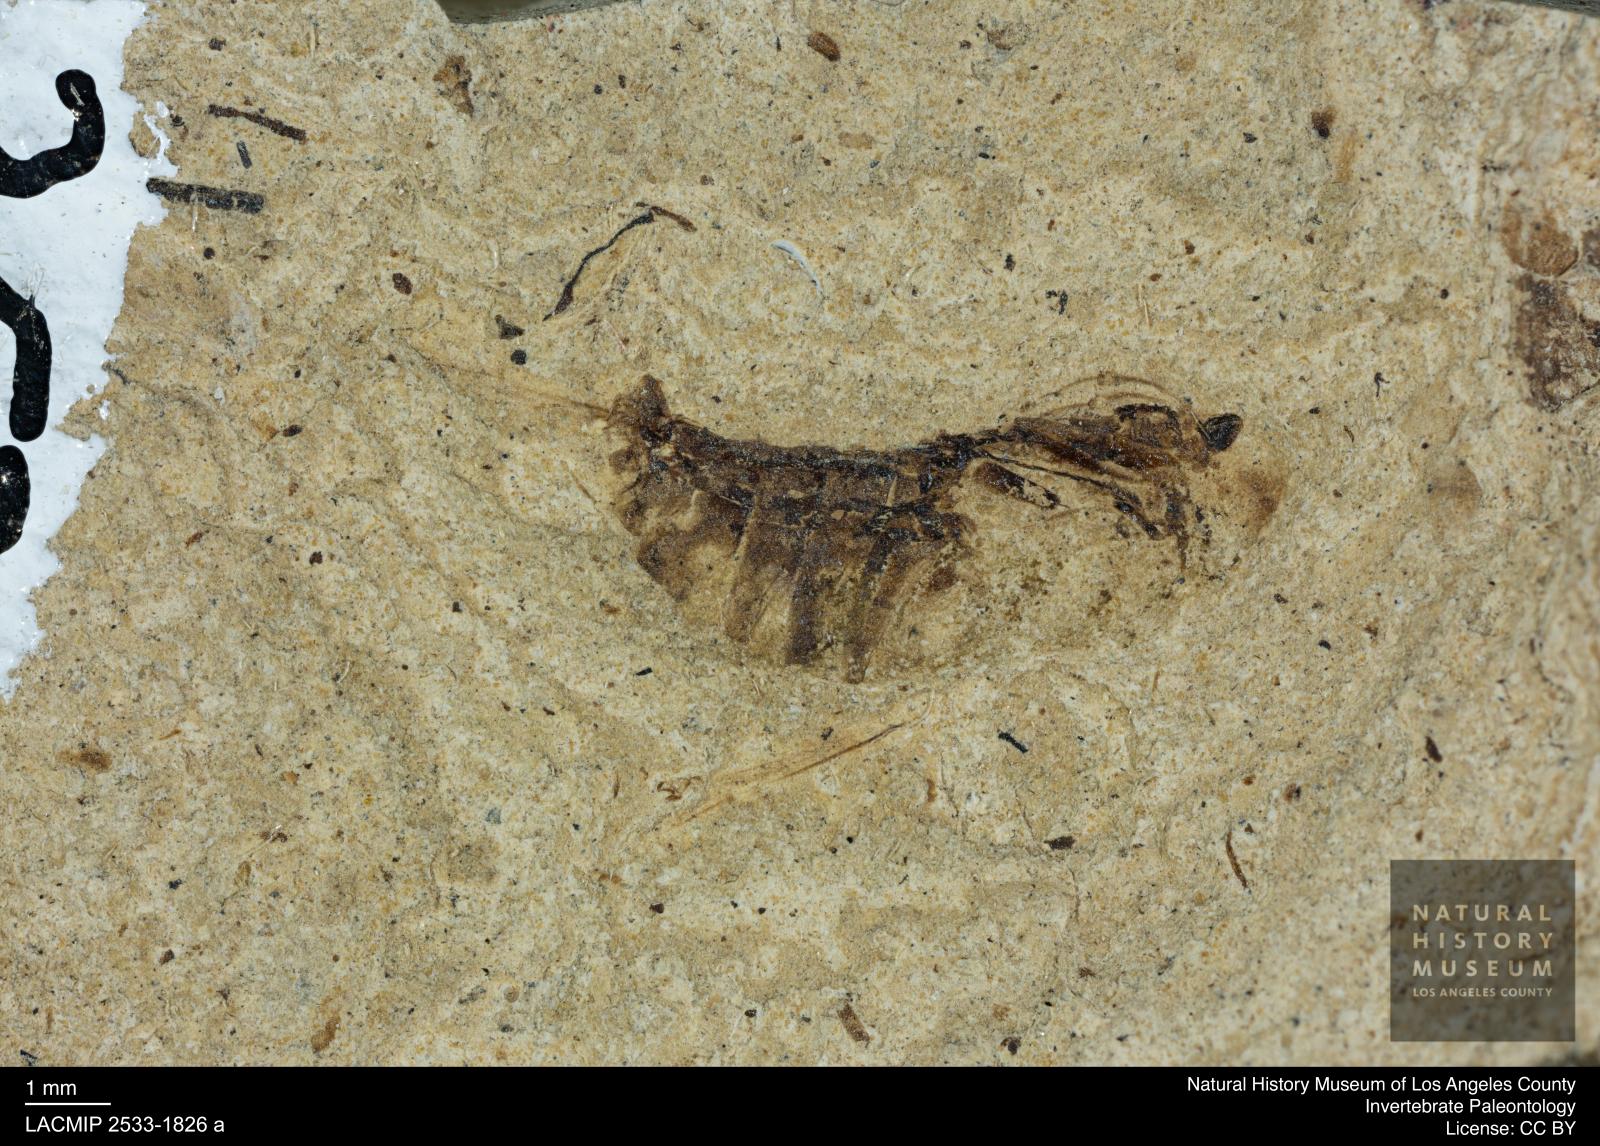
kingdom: Animalia
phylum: Arthropoda
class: Insecta
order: Hemiptera
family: Notonectidae
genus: Notonecta
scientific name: Notonecta
